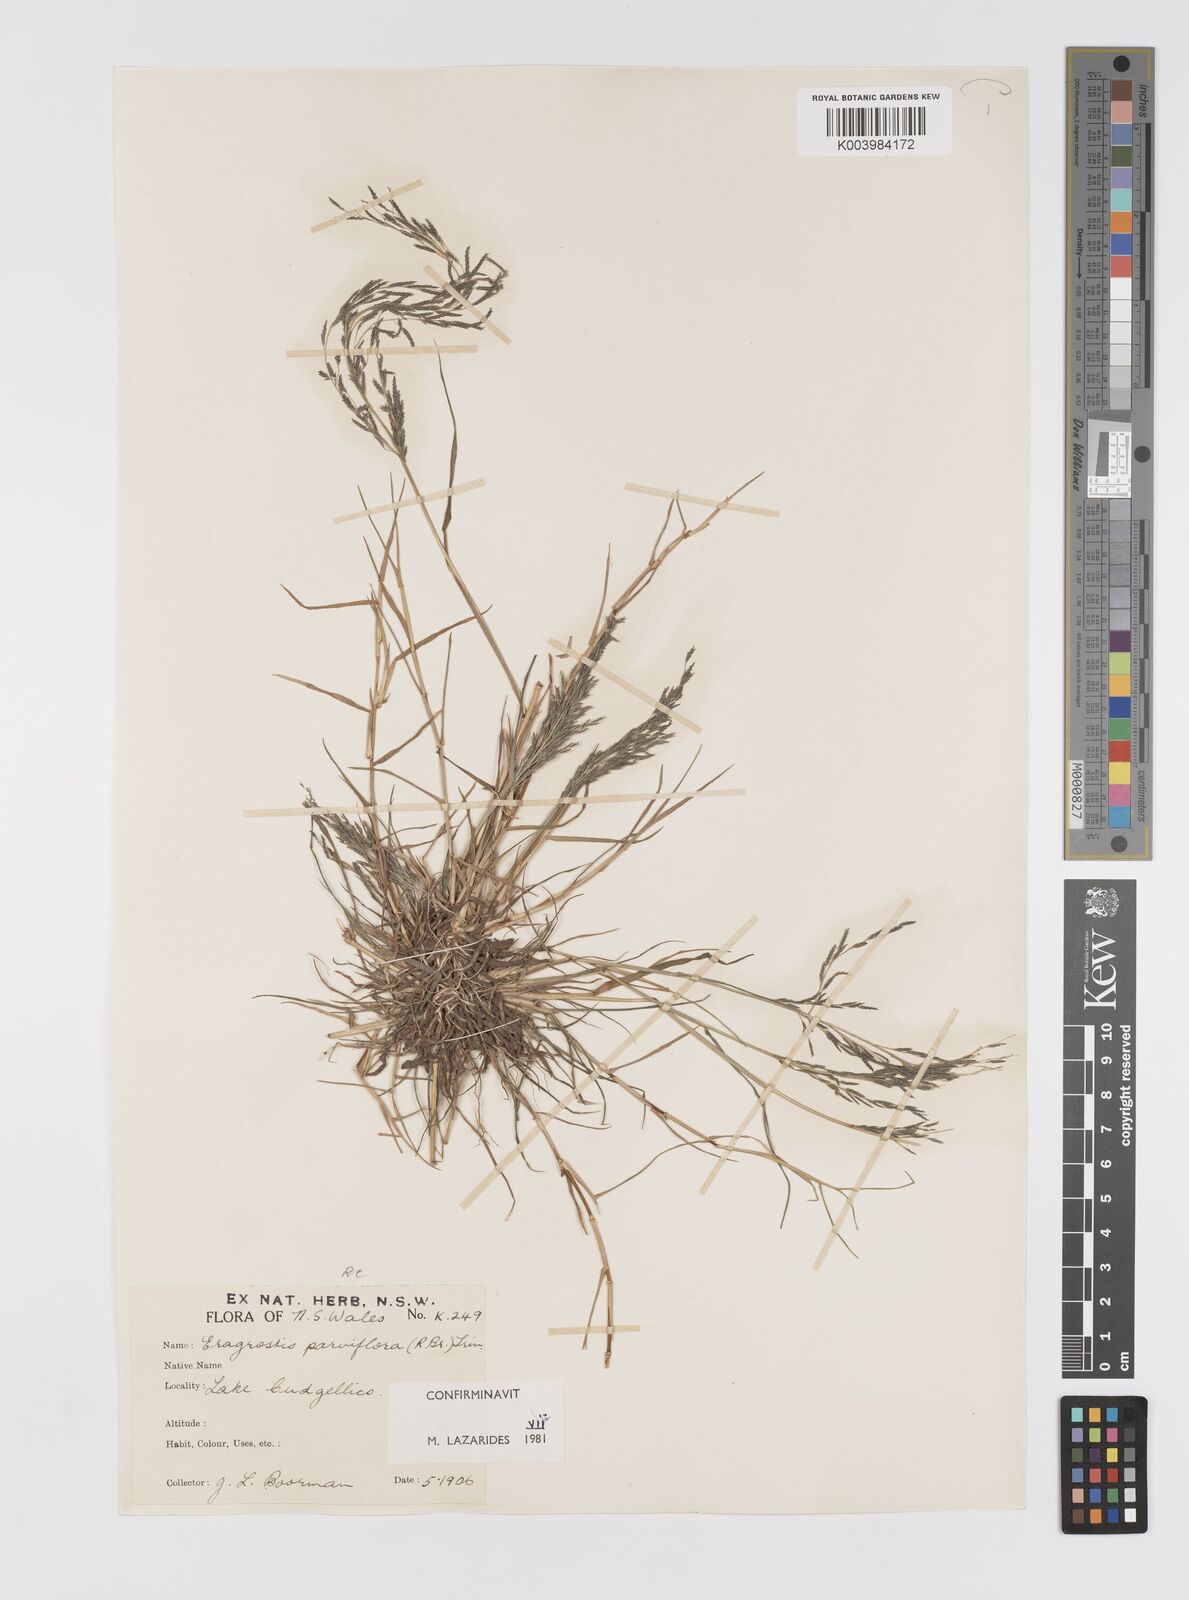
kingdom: Plantae
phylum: Tracheophyta
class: Liliopsida
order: Poales
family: Poaceae
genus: Eragrostis
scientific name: Eragrostis parviflora
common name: Weeping love-grass
